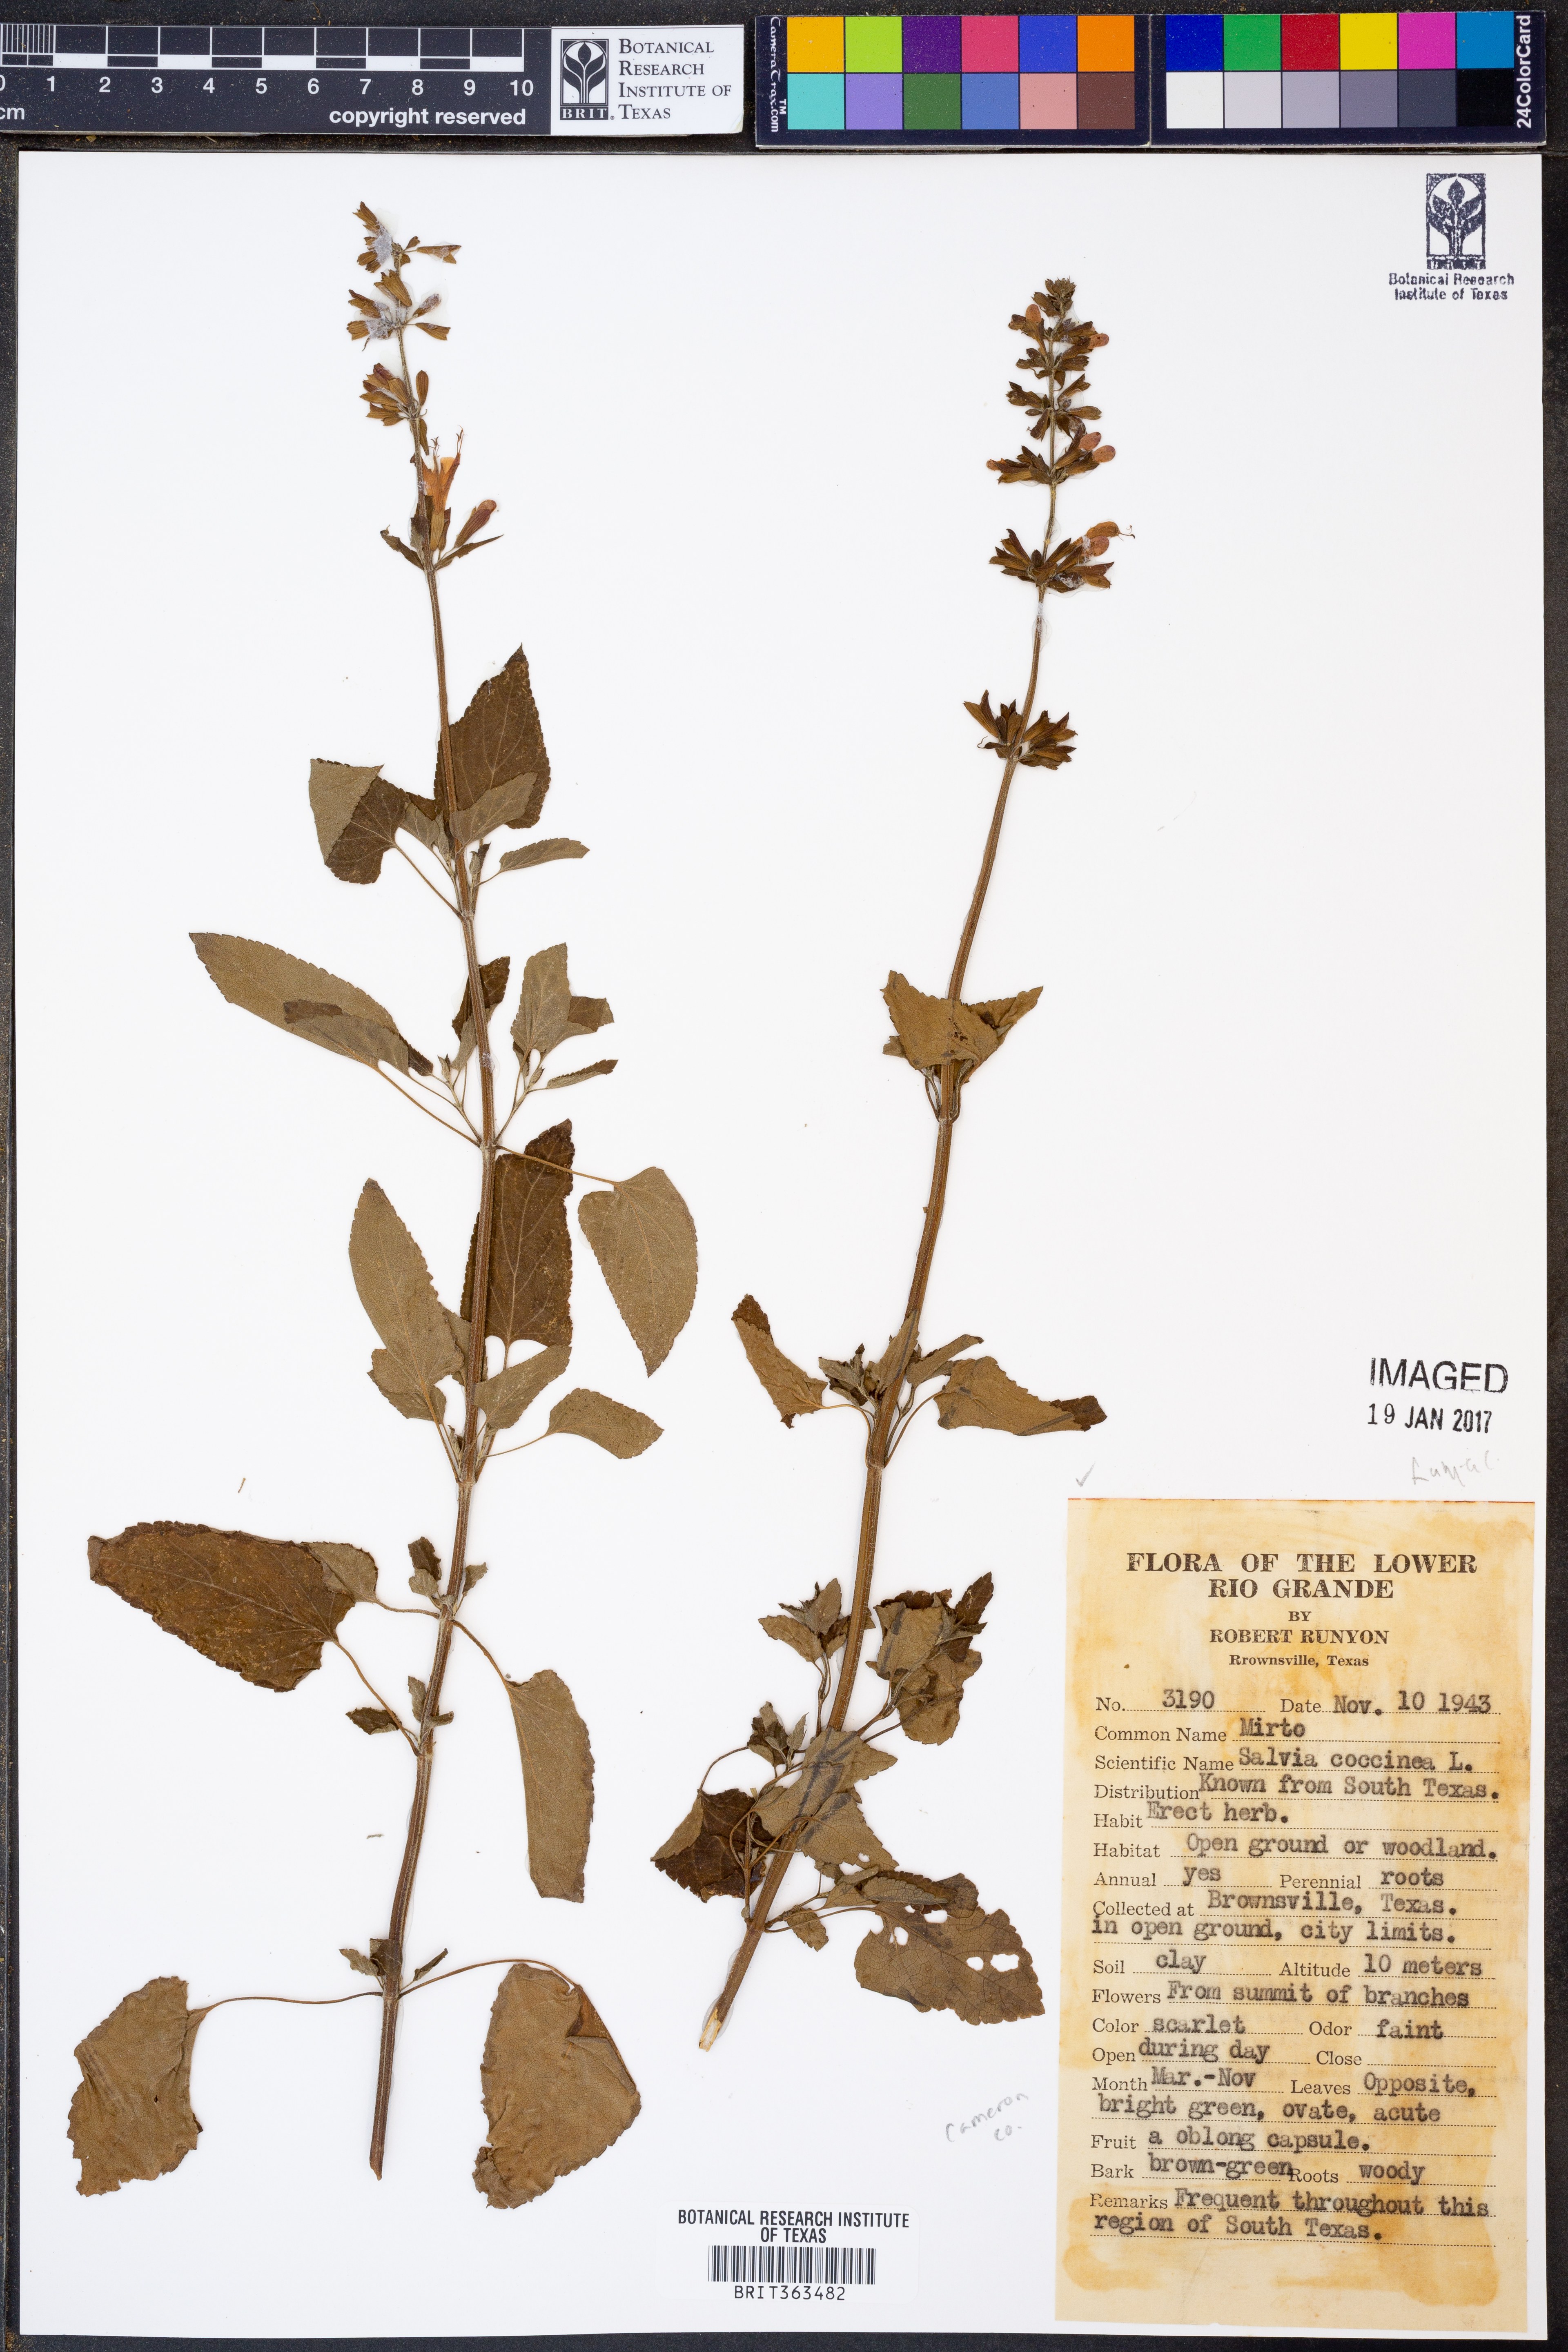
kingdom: Plantae
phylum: Tracheophyta
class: Magnoliopsida
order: Lamiales
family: Lamiaceae
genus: Salvia
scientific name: Salvia coccinea
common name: Blood sage
